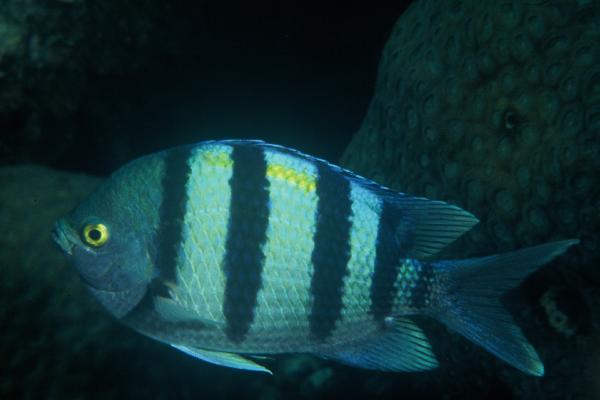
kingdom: Animalia
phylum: Chordata
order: Perciformes
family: Pomacentridae
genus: Abudefduf
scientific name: Abudefduf vaigiensis
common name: Indo-pacific sergeant
